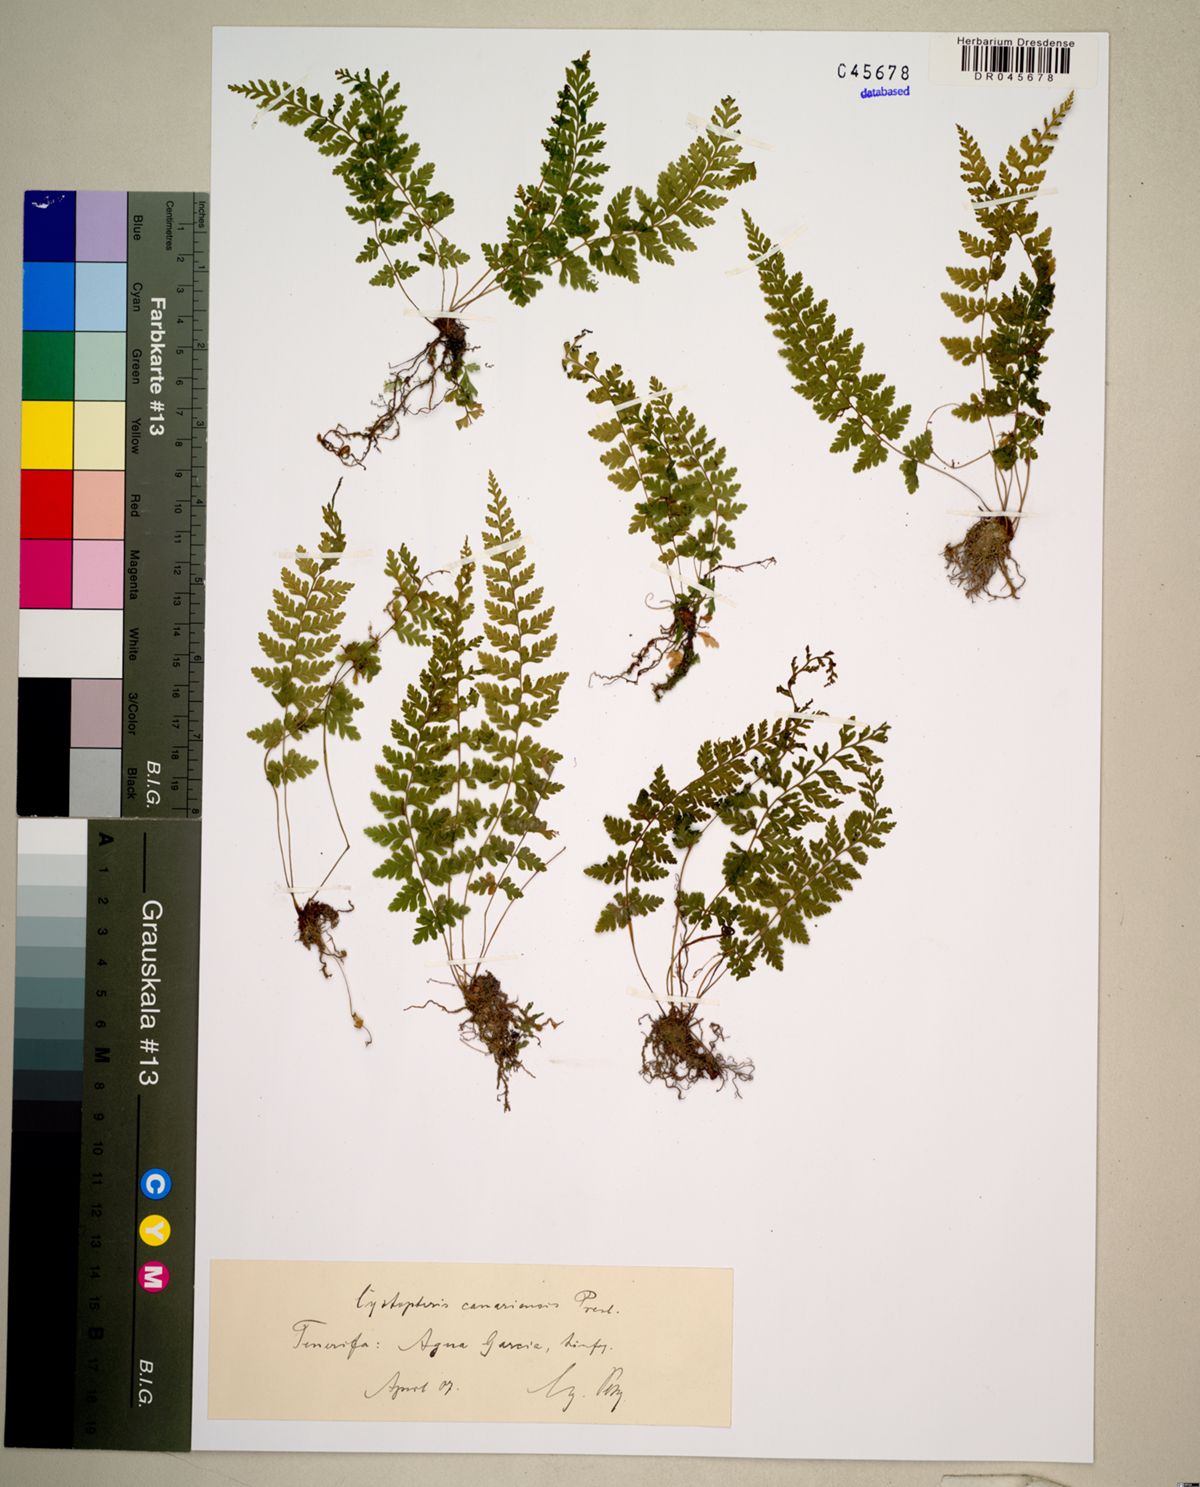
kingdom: Plantae
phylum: Tracheophyta
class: Polypodiopsida
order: Polypodiales
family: Cystopteridaceae
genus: Cystopteris
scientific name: Cystopteris fragilis
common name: Brittle bladder fern
